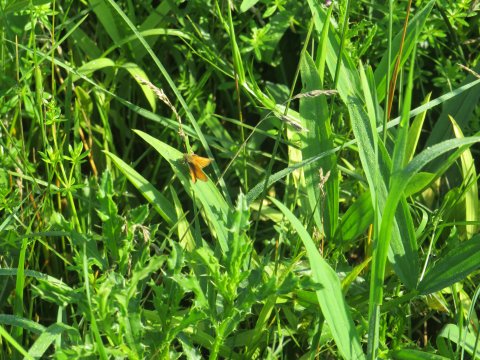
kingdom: Animalia
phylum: Arthropoda
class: Insecta
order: Lepidoptera
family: Hesperiidae
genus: Thymelicus
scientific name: Thymelicus lineola
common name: European Skipper
